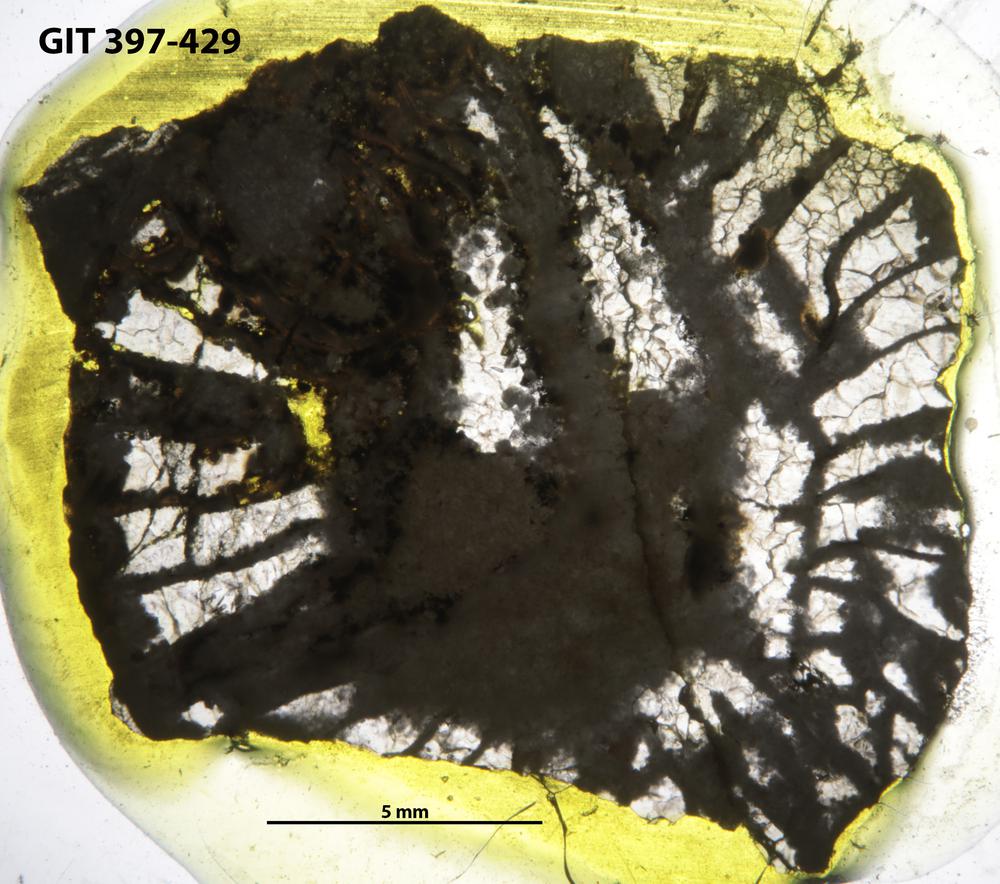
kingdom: Animalia
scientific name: Animalia
